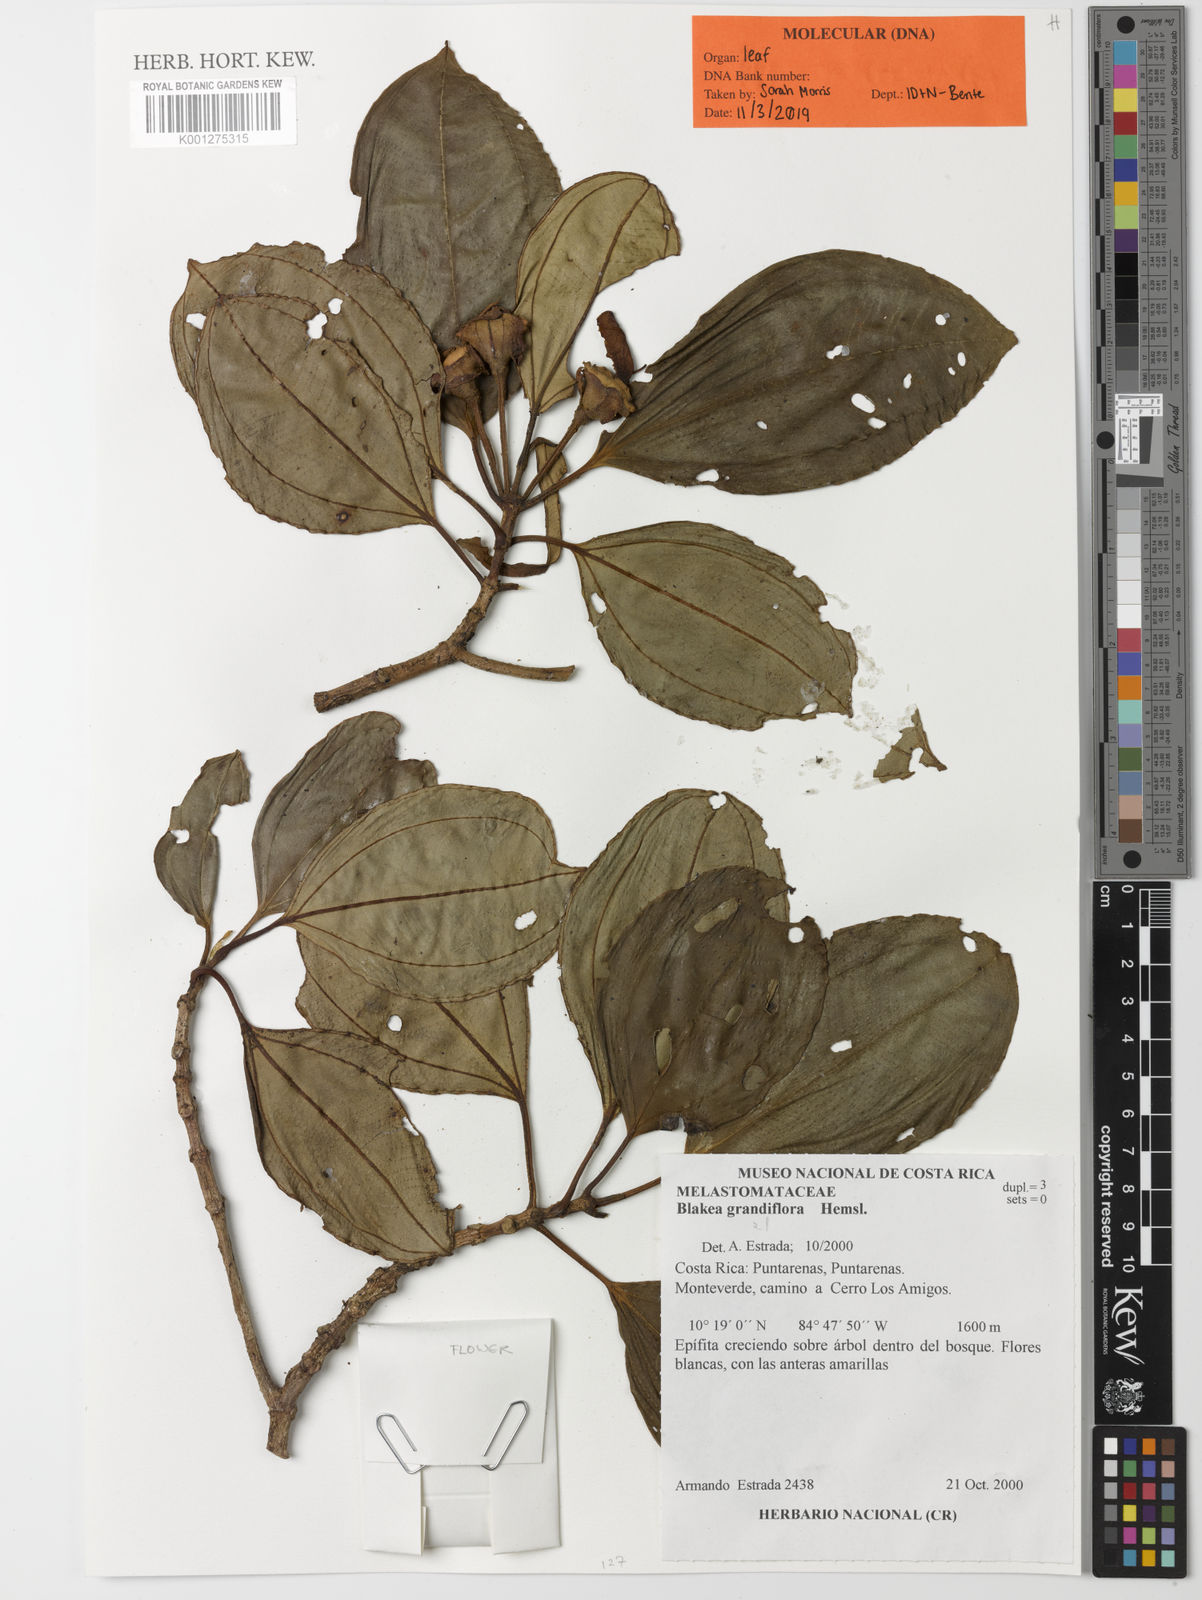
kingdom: Plantae
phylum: Tracheophyta
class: Magnoliopsida
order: Myrtales
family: Melastomataceae
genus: Blakea
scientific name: Blakea grandiflora
